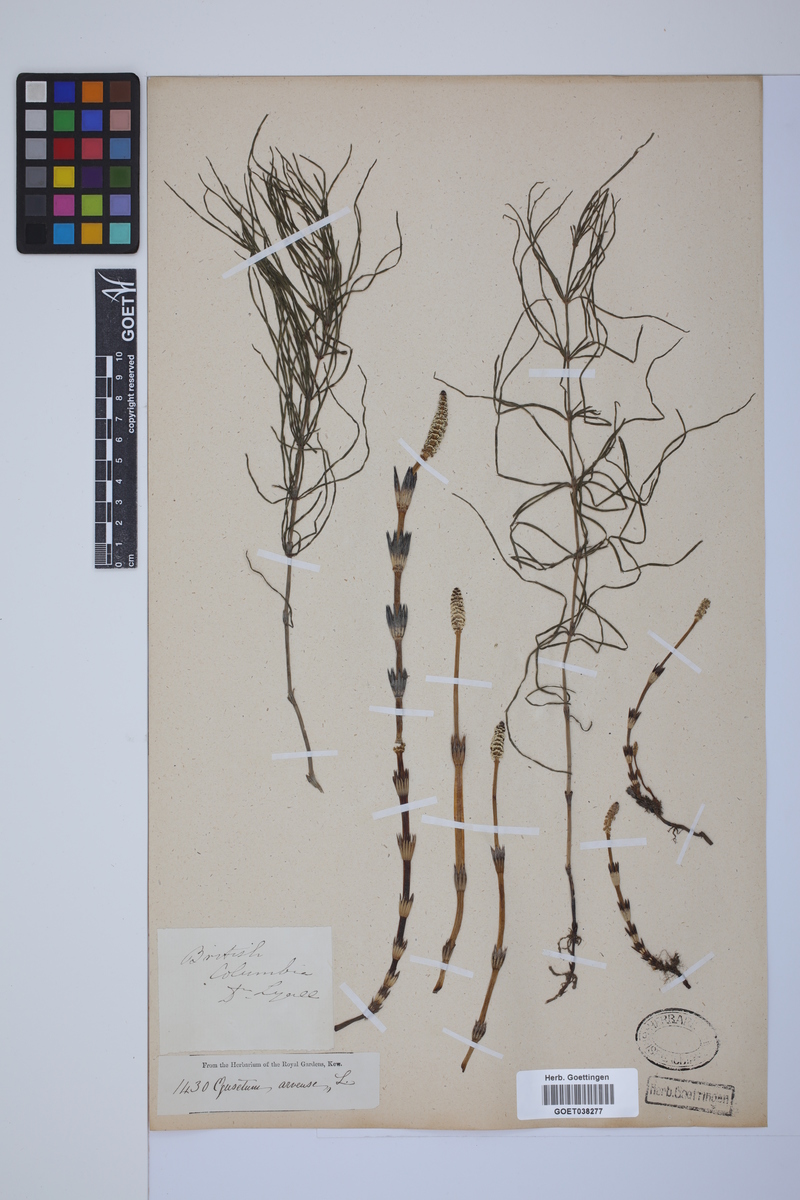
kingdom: Plantae
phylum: Tracheophyta
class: Polypodiopsida
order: Equisetales
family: Equisetaceae
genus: Equisetum
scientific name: Equisetum arvense
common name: Field horsetail
